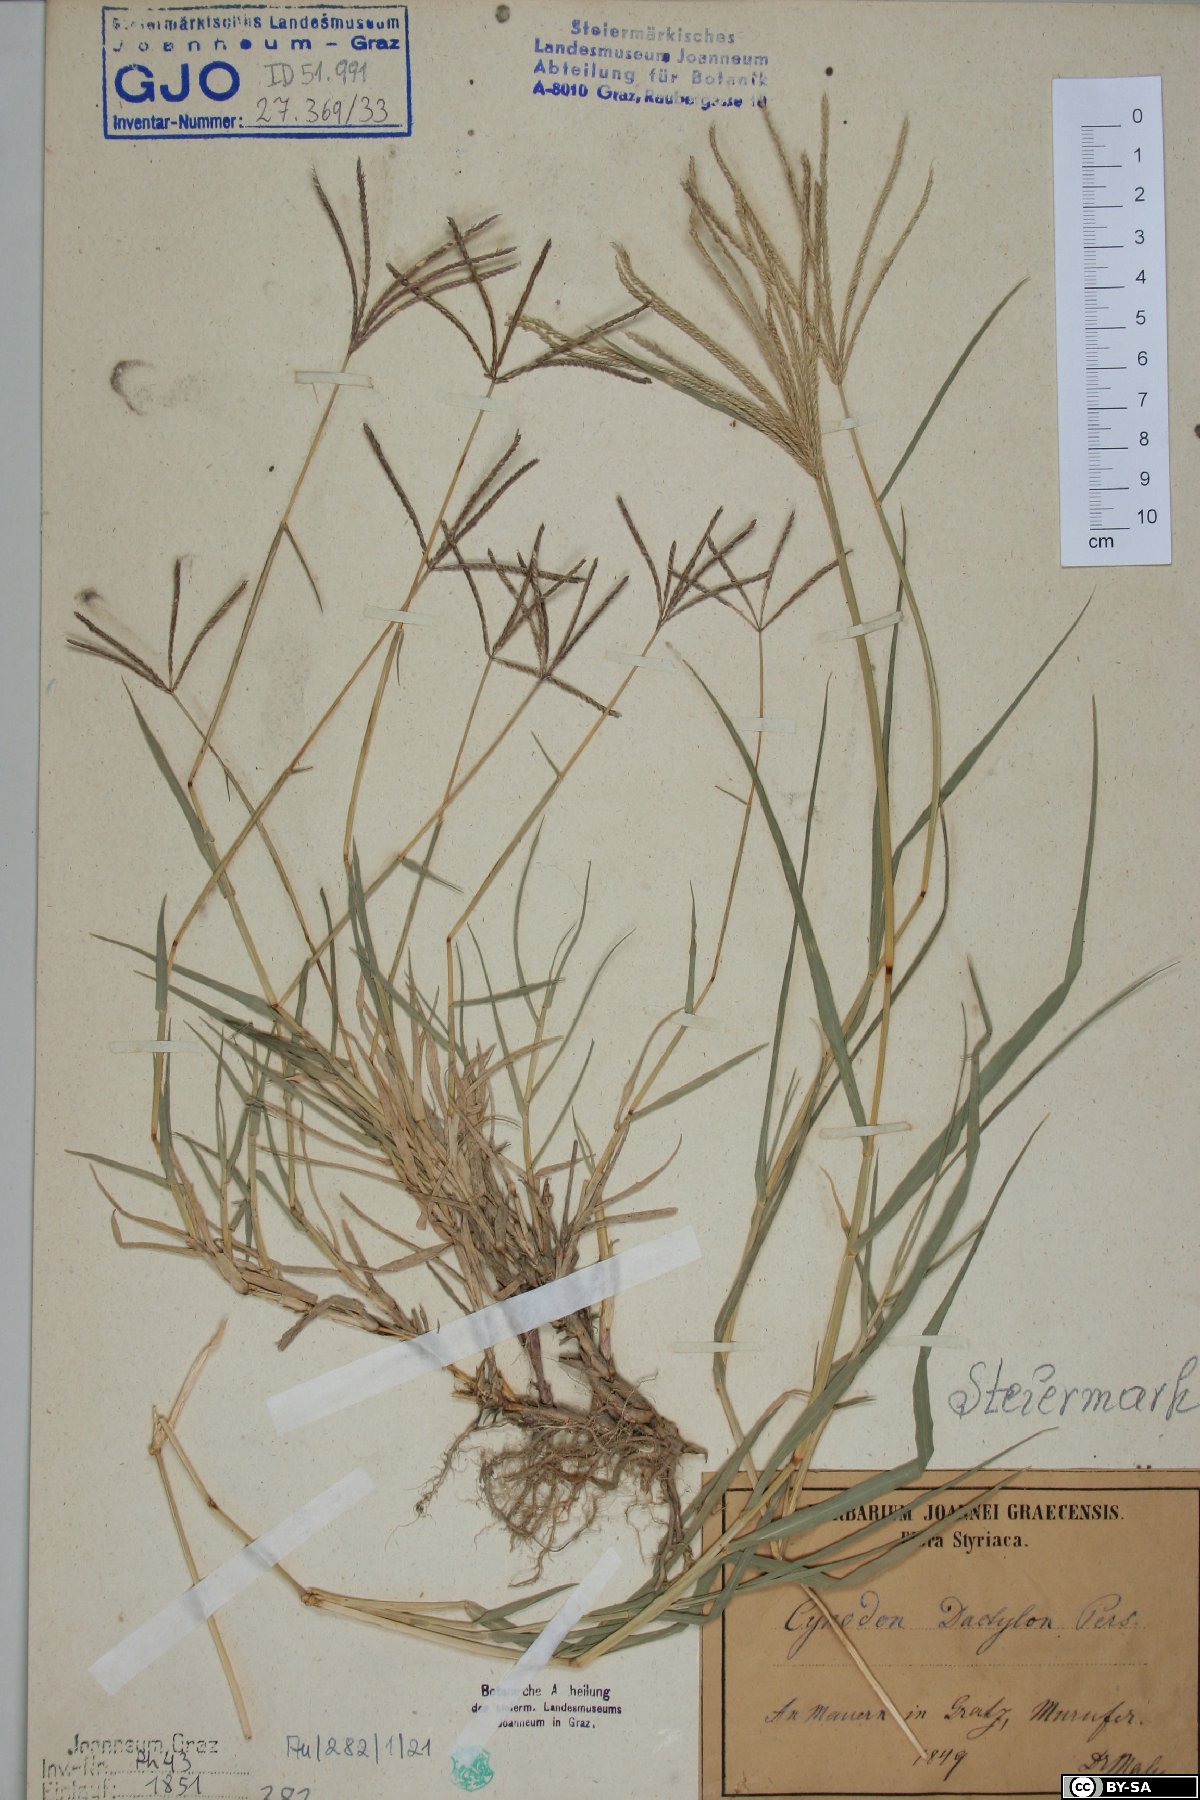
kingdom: Plantae
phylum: Tracheophyta
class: Liliopsida
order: Poales
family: Poaceae
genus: Cynodon
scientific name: Cynodon dactylon
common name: Bermuda grass
